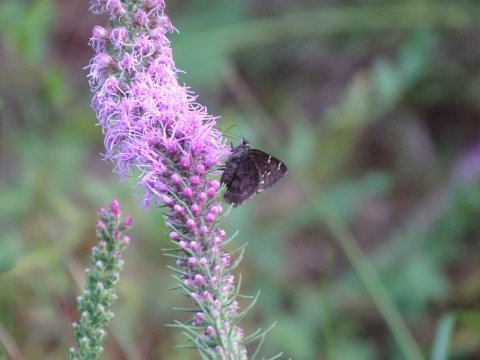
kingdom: Animalia
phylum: Arthropoda
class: Insecta
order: Lepidoptera
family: Hesperiidae
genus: Thorybes
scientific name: Thorybes mexicana
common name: Confused Cloudywing
